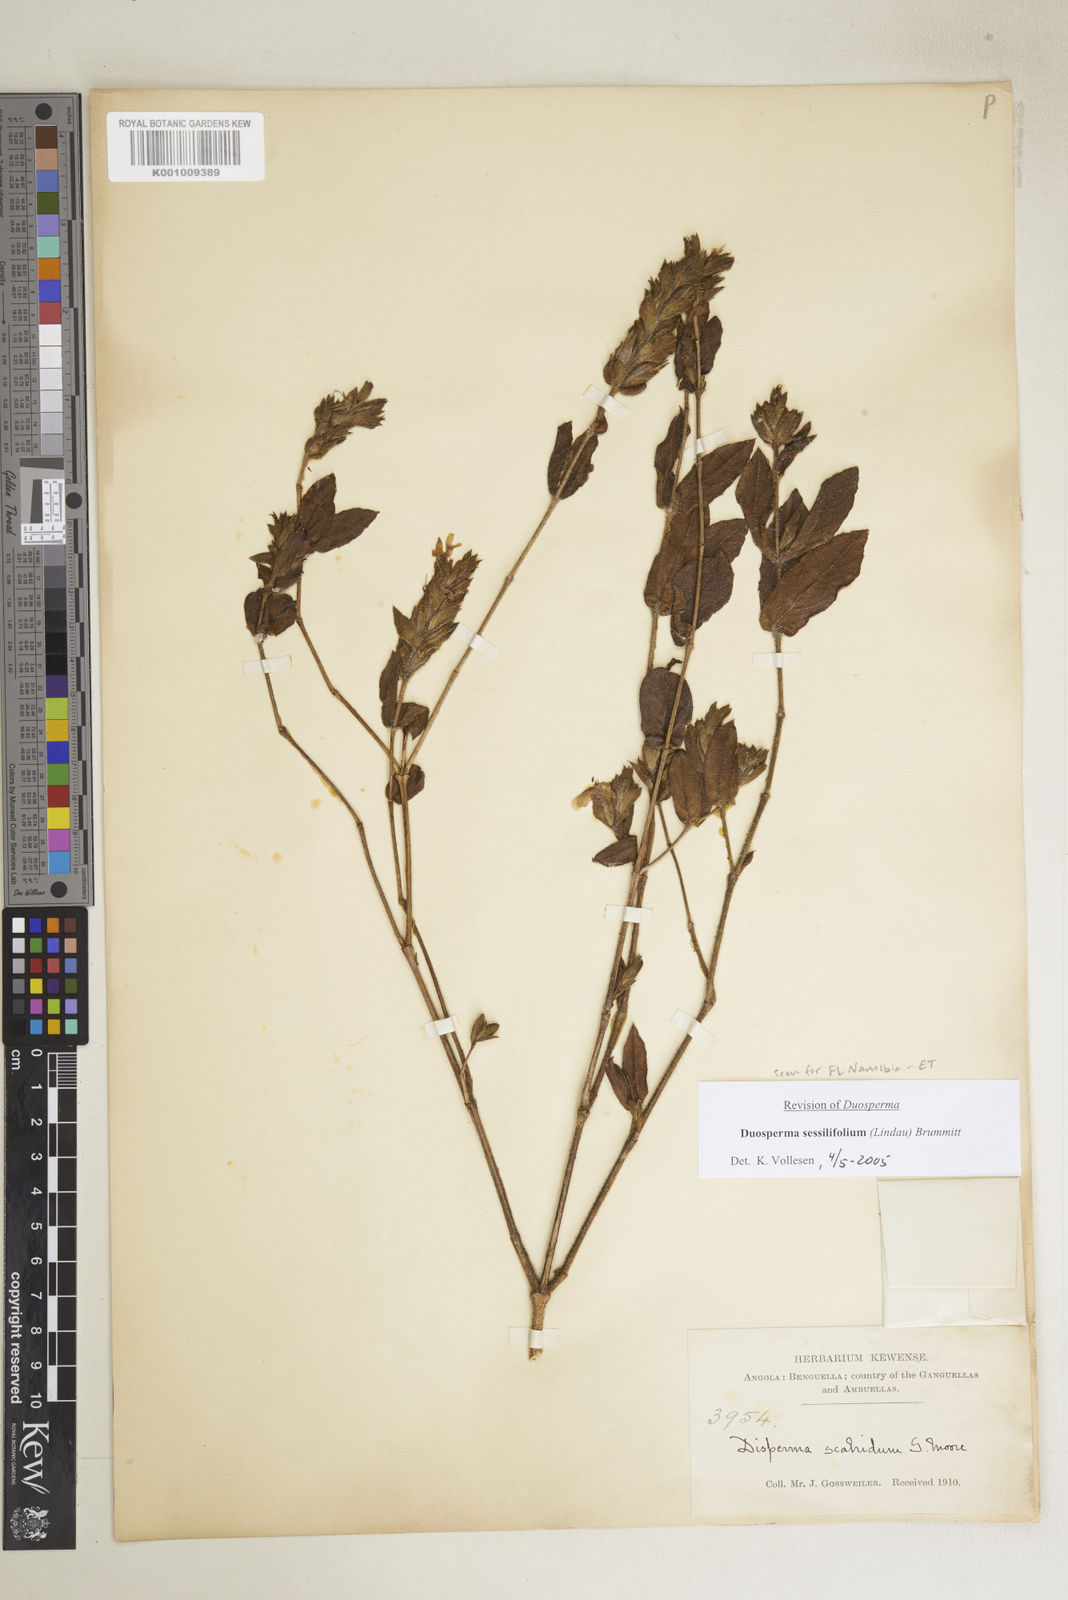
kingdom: Plantae
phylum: Tracheophyta
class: Magnoliopsida
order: Lamiales
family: Acanthaceae
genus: Duosperma
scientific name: Duosperma sessilifolium
